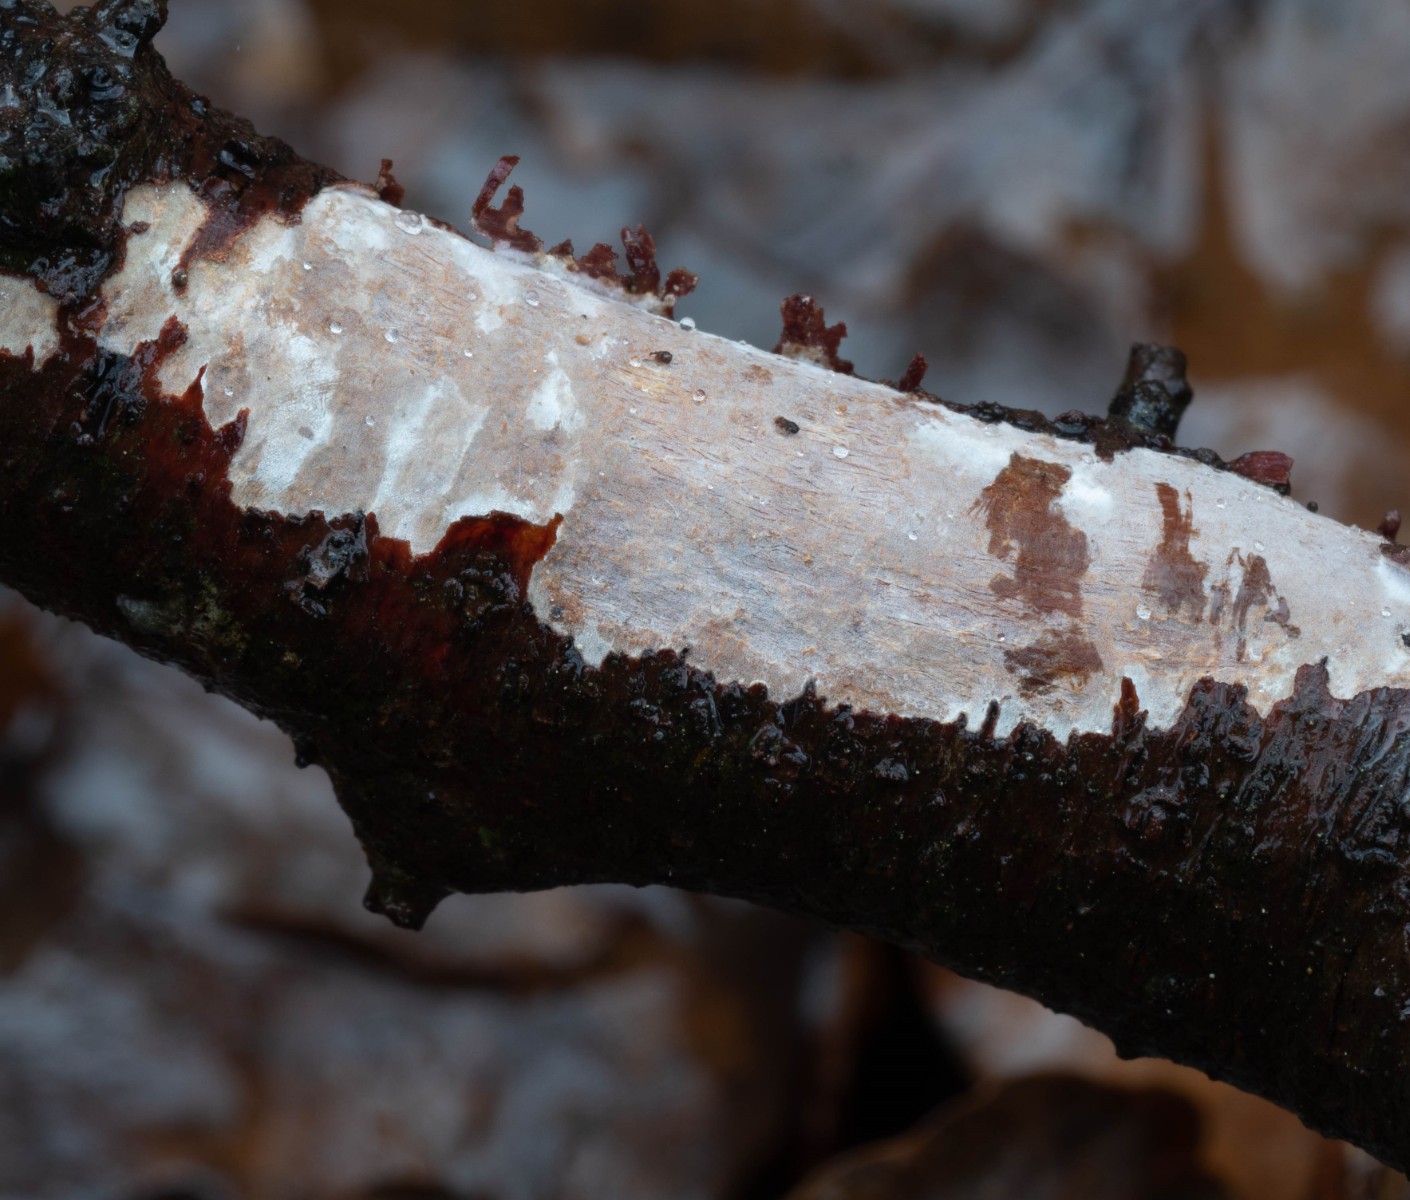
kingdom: Fungi
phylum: Basidiomycota
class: Agaricomycetes
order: Corticiales
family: Vuilleminiaceae
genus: Vuilleminia
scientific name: Vuilleminia cystidiata
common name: tjørne-barksprænger
